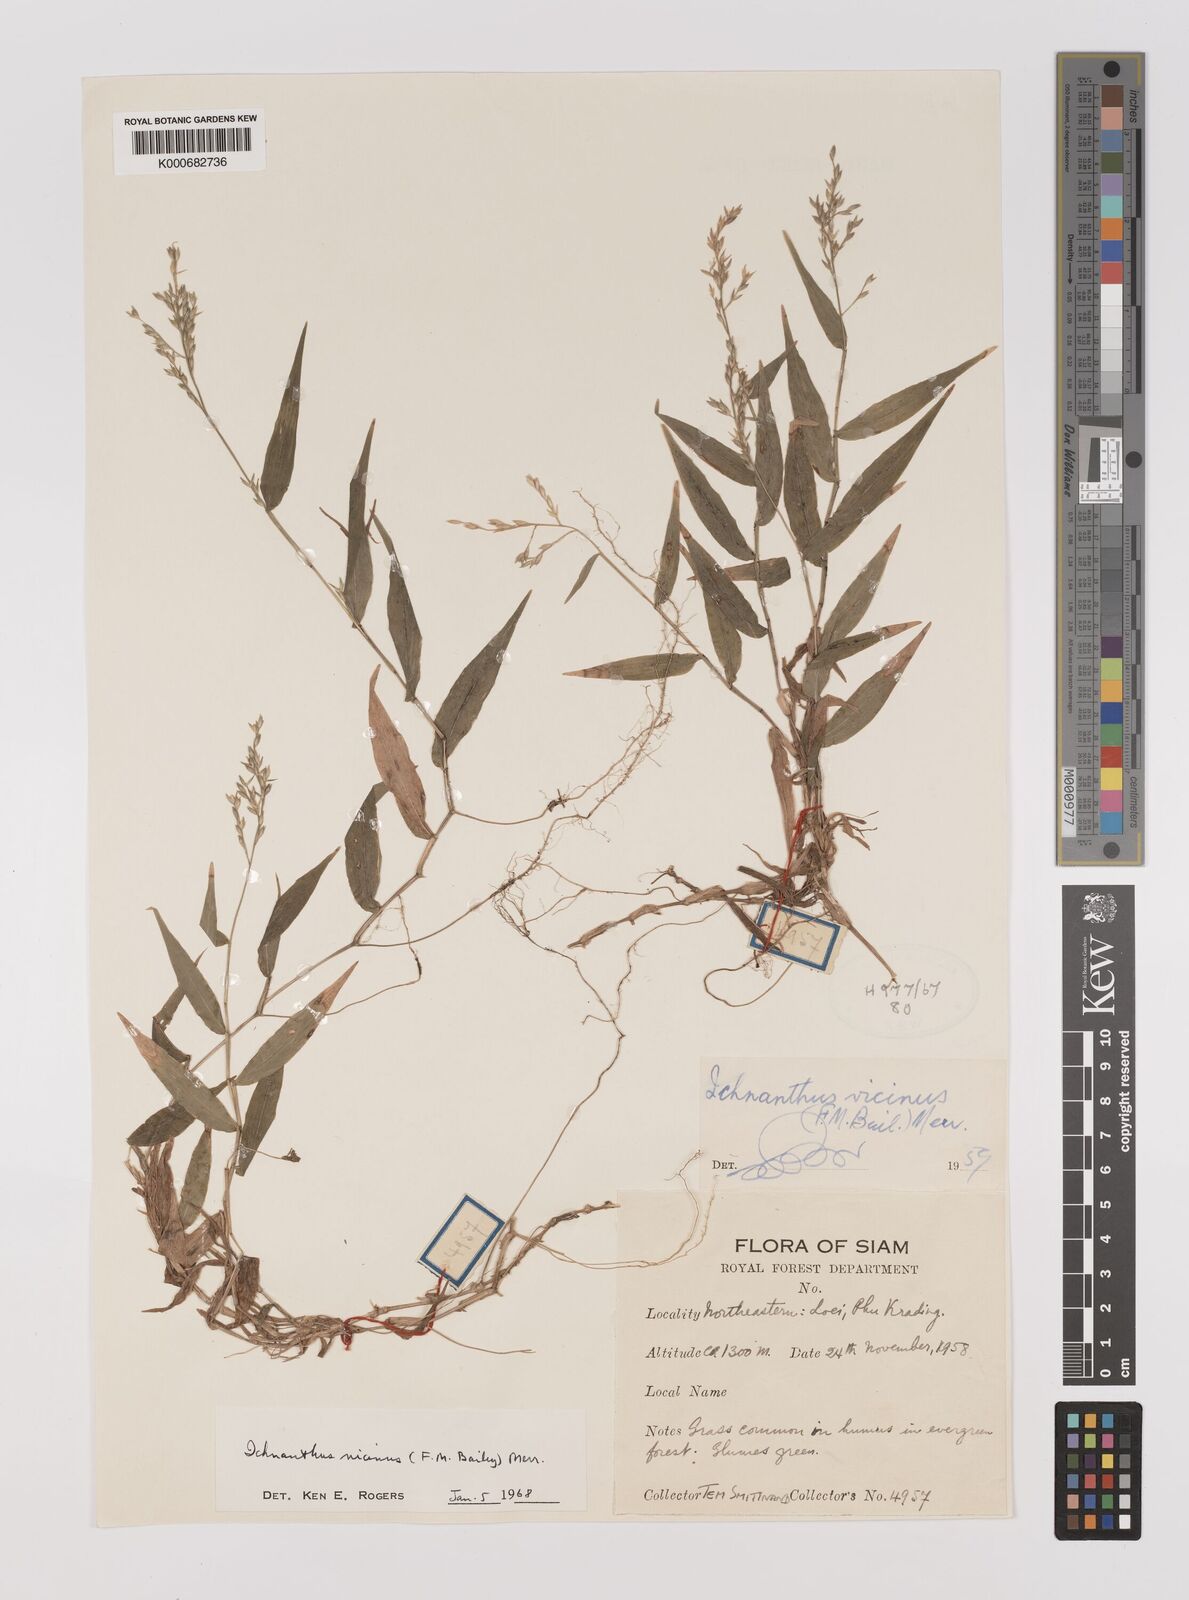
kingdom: Plantae
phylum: Tracheophyta
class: Liliopsida
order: Poales
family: Poaceae
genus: Ichnanthus
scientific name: Ichnanthus pallens
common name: Water grass
